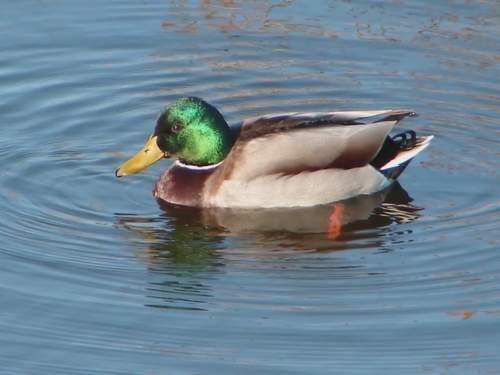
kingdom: Animalia
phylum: Chordata
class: Aves
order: Anseriformes
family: Anatidae
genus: Anas
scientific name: Anas platyrhynchos
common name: Mallard
